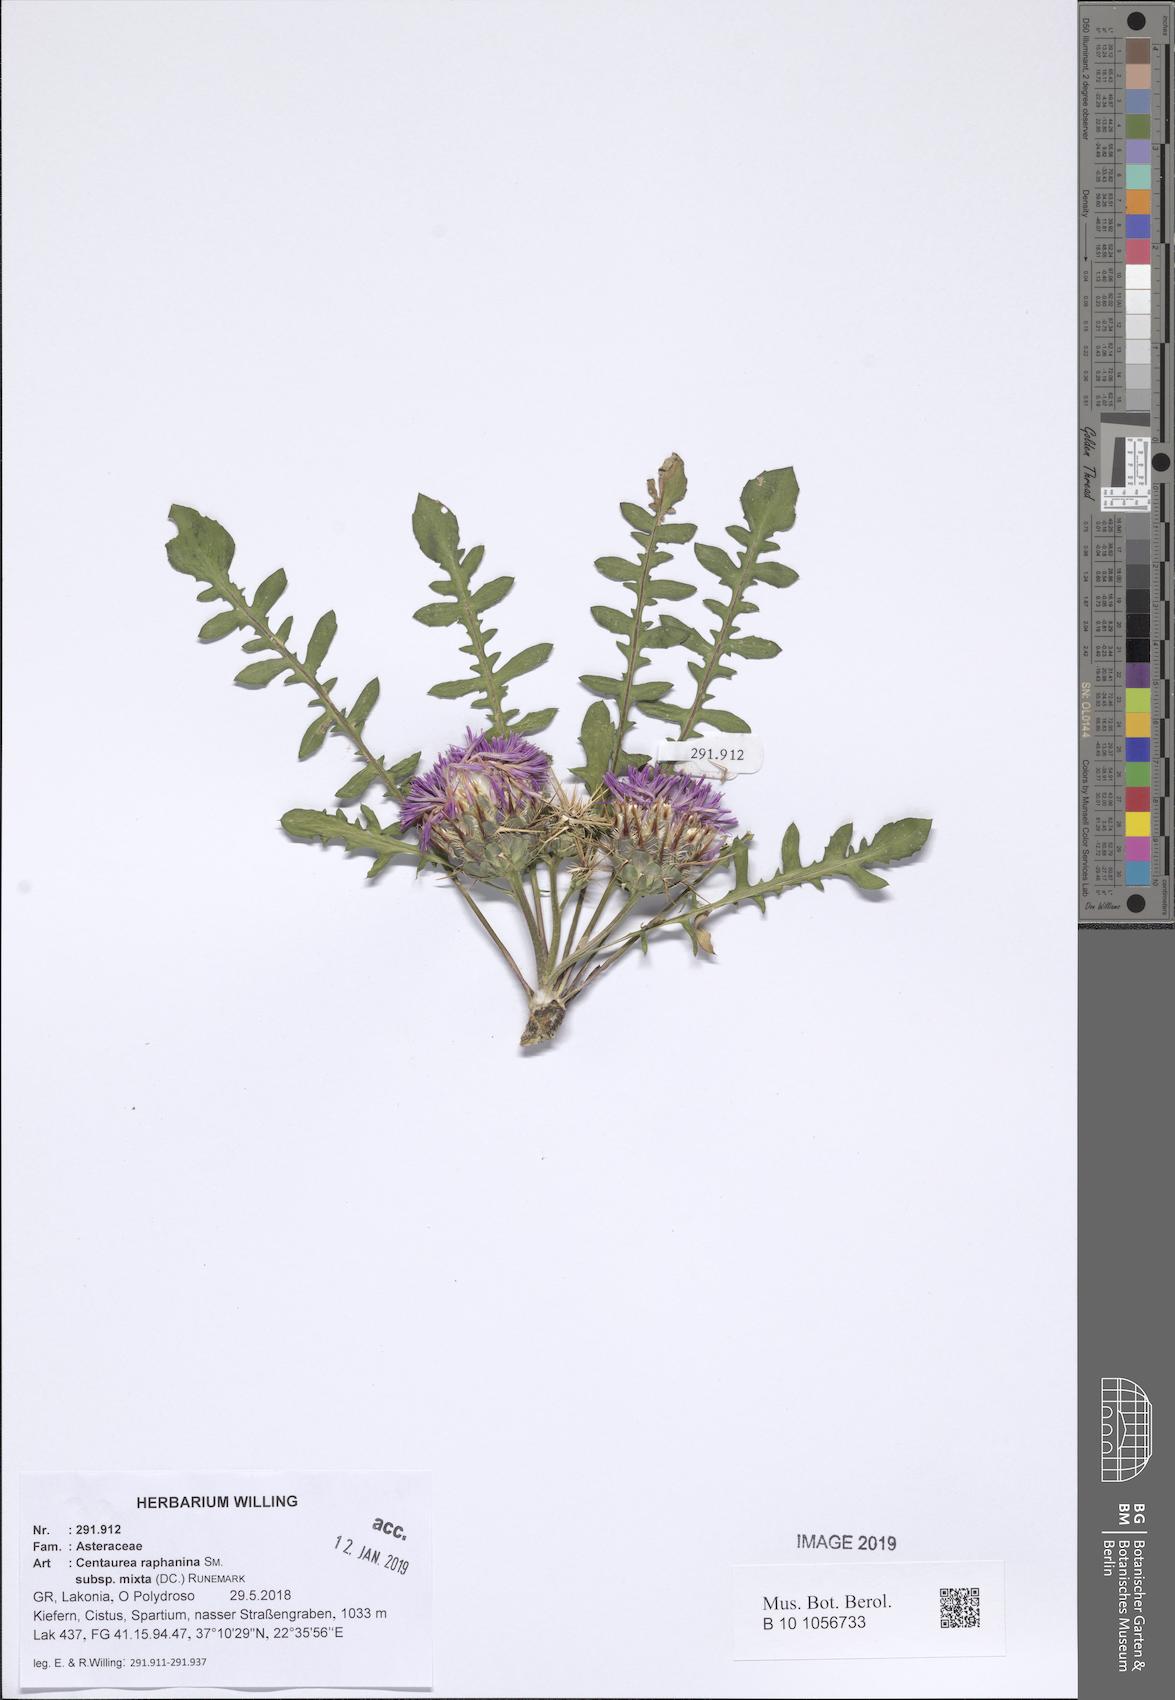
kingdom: Plantae
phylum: Tracheophyta
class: Magnoliopsida
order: Asterales
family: Asteraceae
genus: Centaurea
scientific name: Centaurea raphanina
